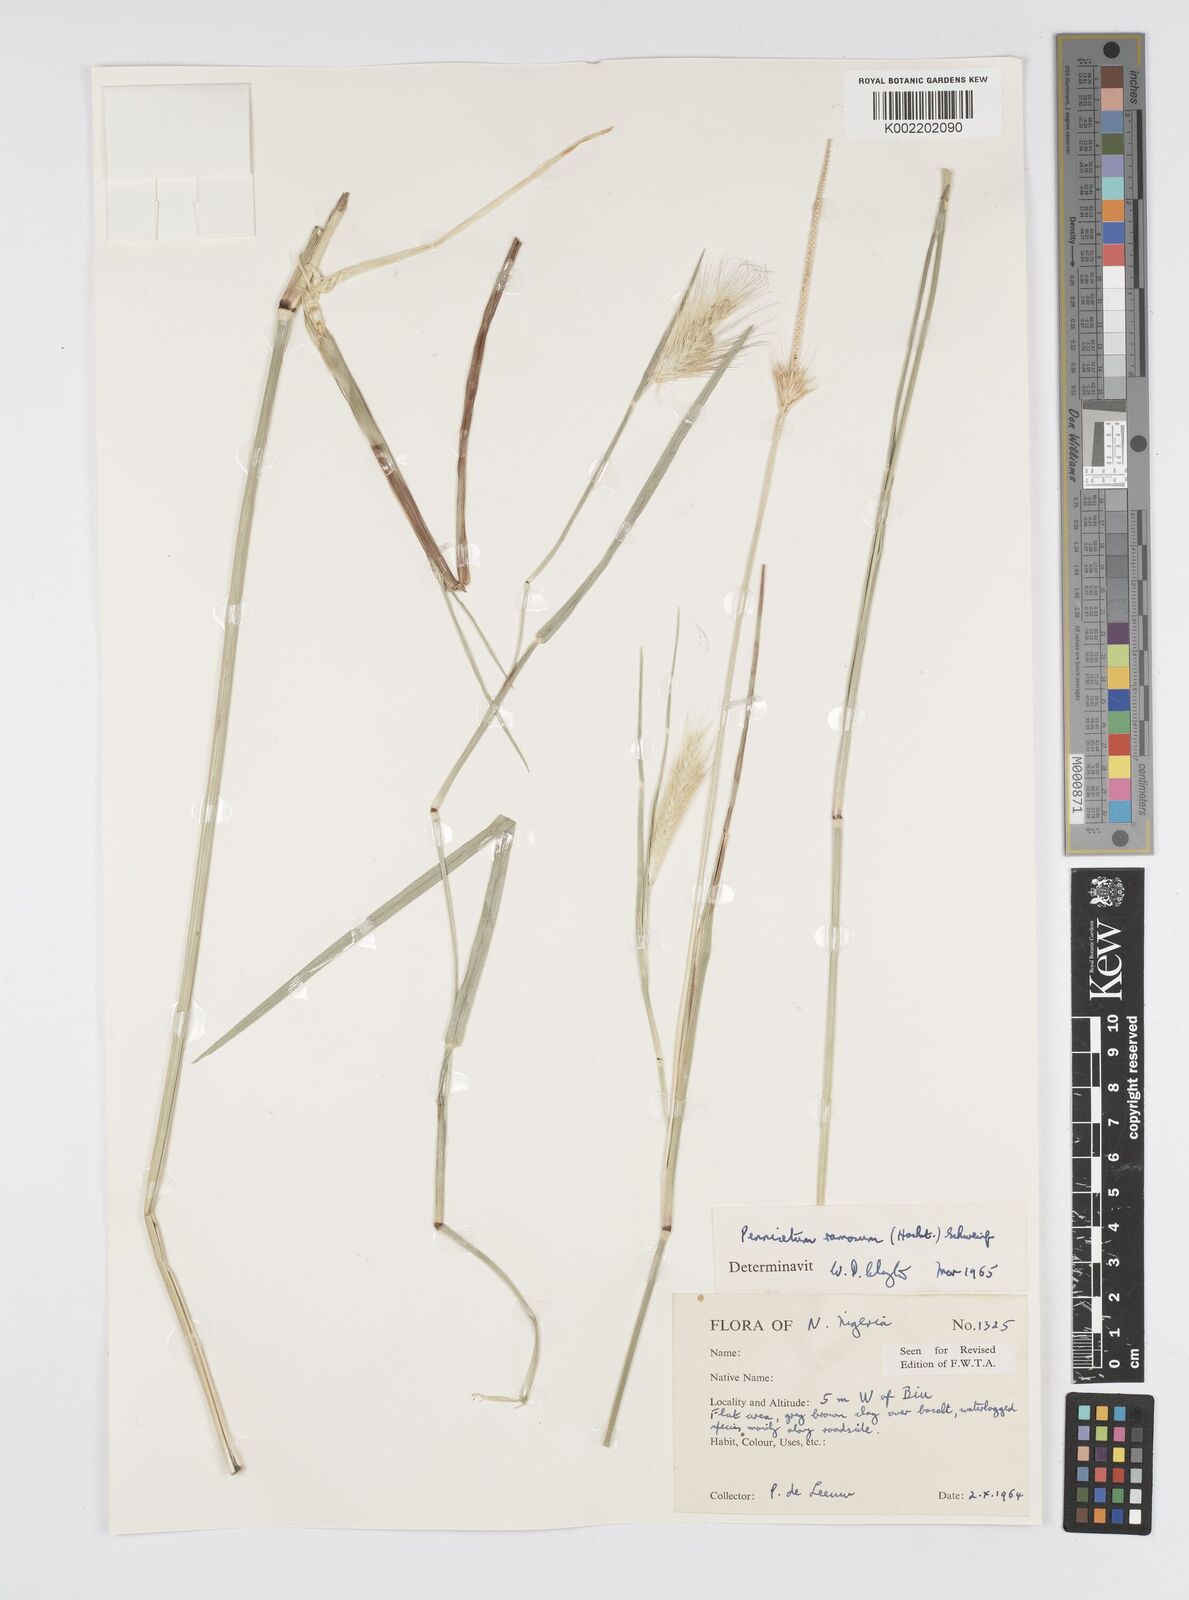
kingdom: Plantae
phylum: Tracheophyta
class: Liliopsida
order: Poales
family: Poaceae
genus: Cenchrus
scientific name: Cenchrus ramosus
